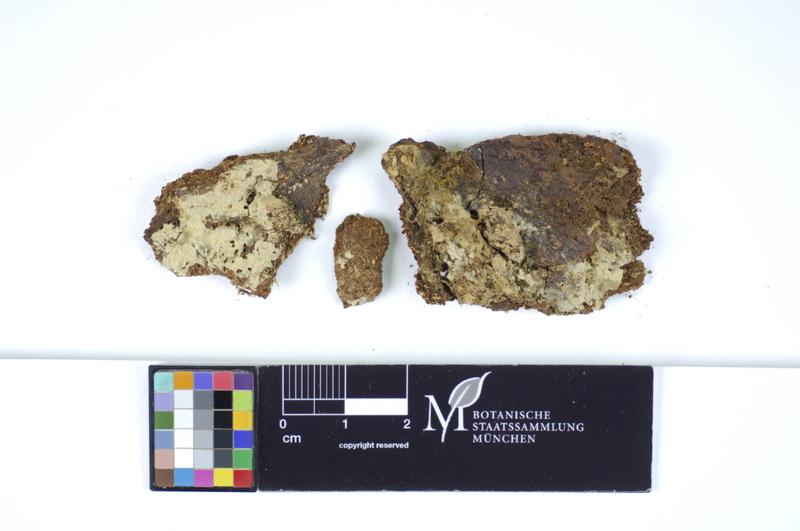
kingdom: Fungi
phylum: Basidiomycota
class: Agaricomycetes
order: Hymenochaetales
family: Hyphodontiaceae
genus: Hyphodontia
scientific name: Hyphodontia abieticola
